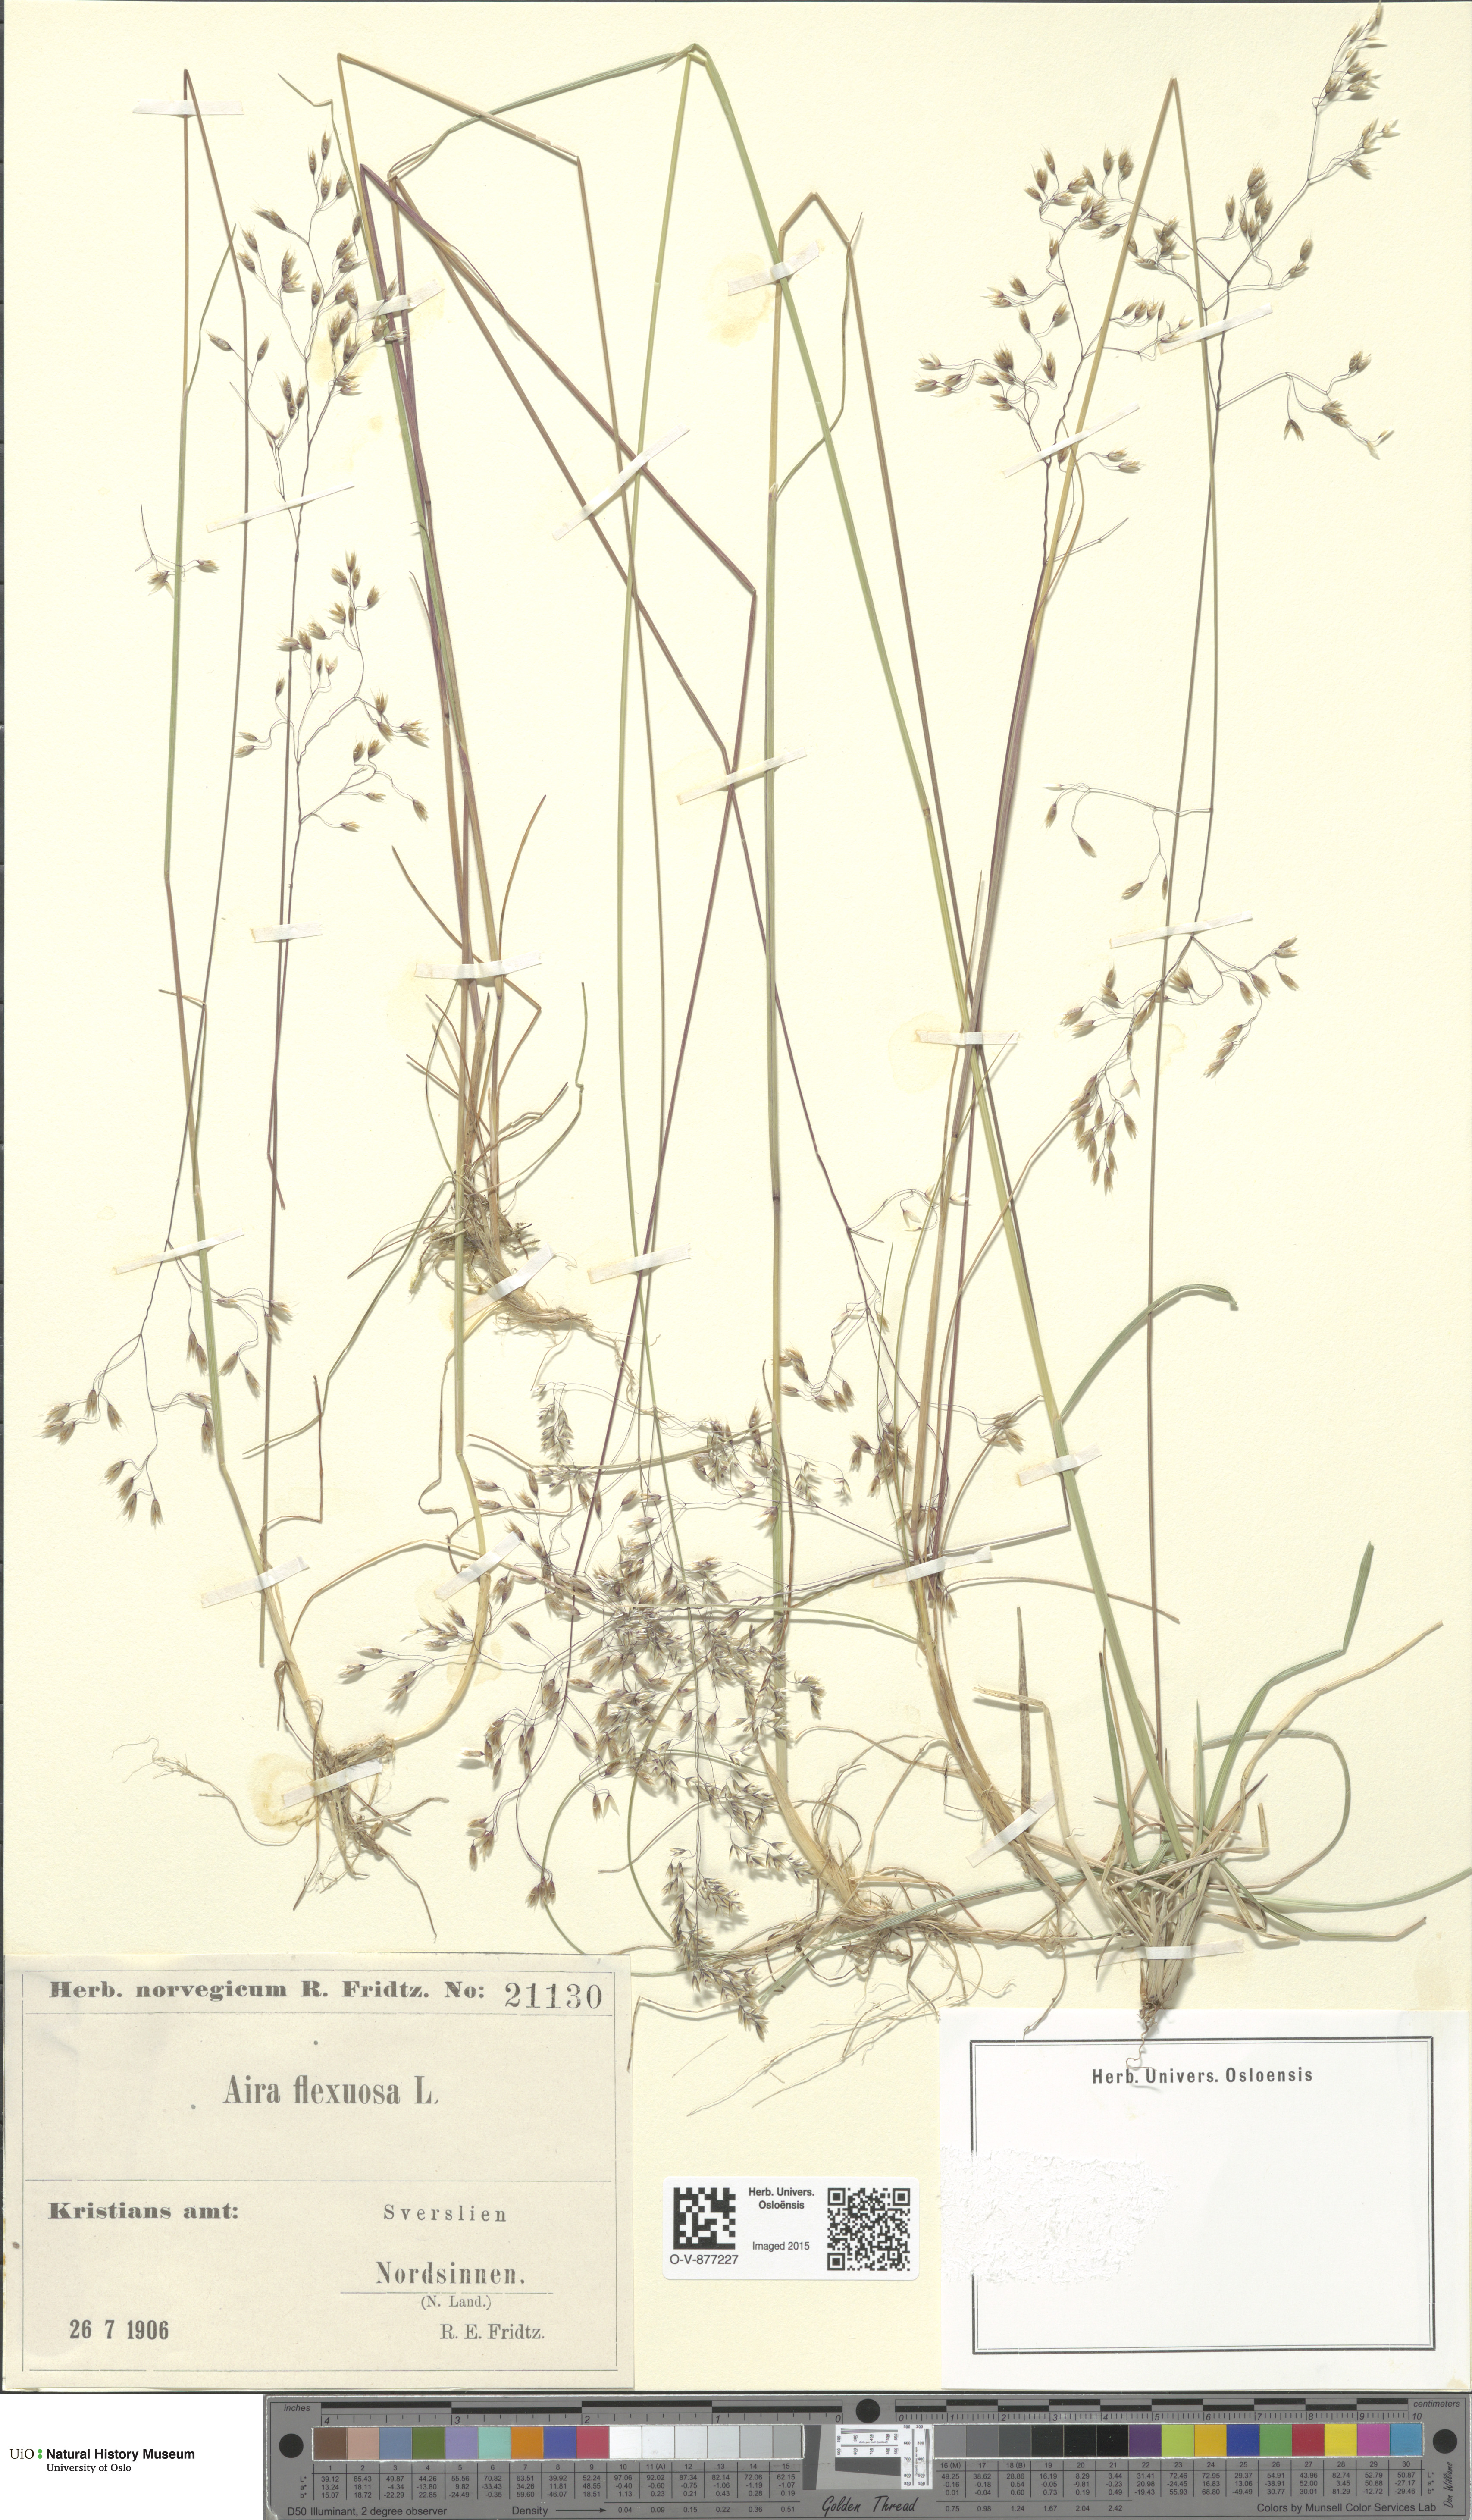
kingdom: Plantae
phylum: Tracheophyta
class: Liliopsida
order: Poales
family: Poaceae
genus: Avenella
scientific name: Avenella flexuosa
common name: Wavy hairgrass
